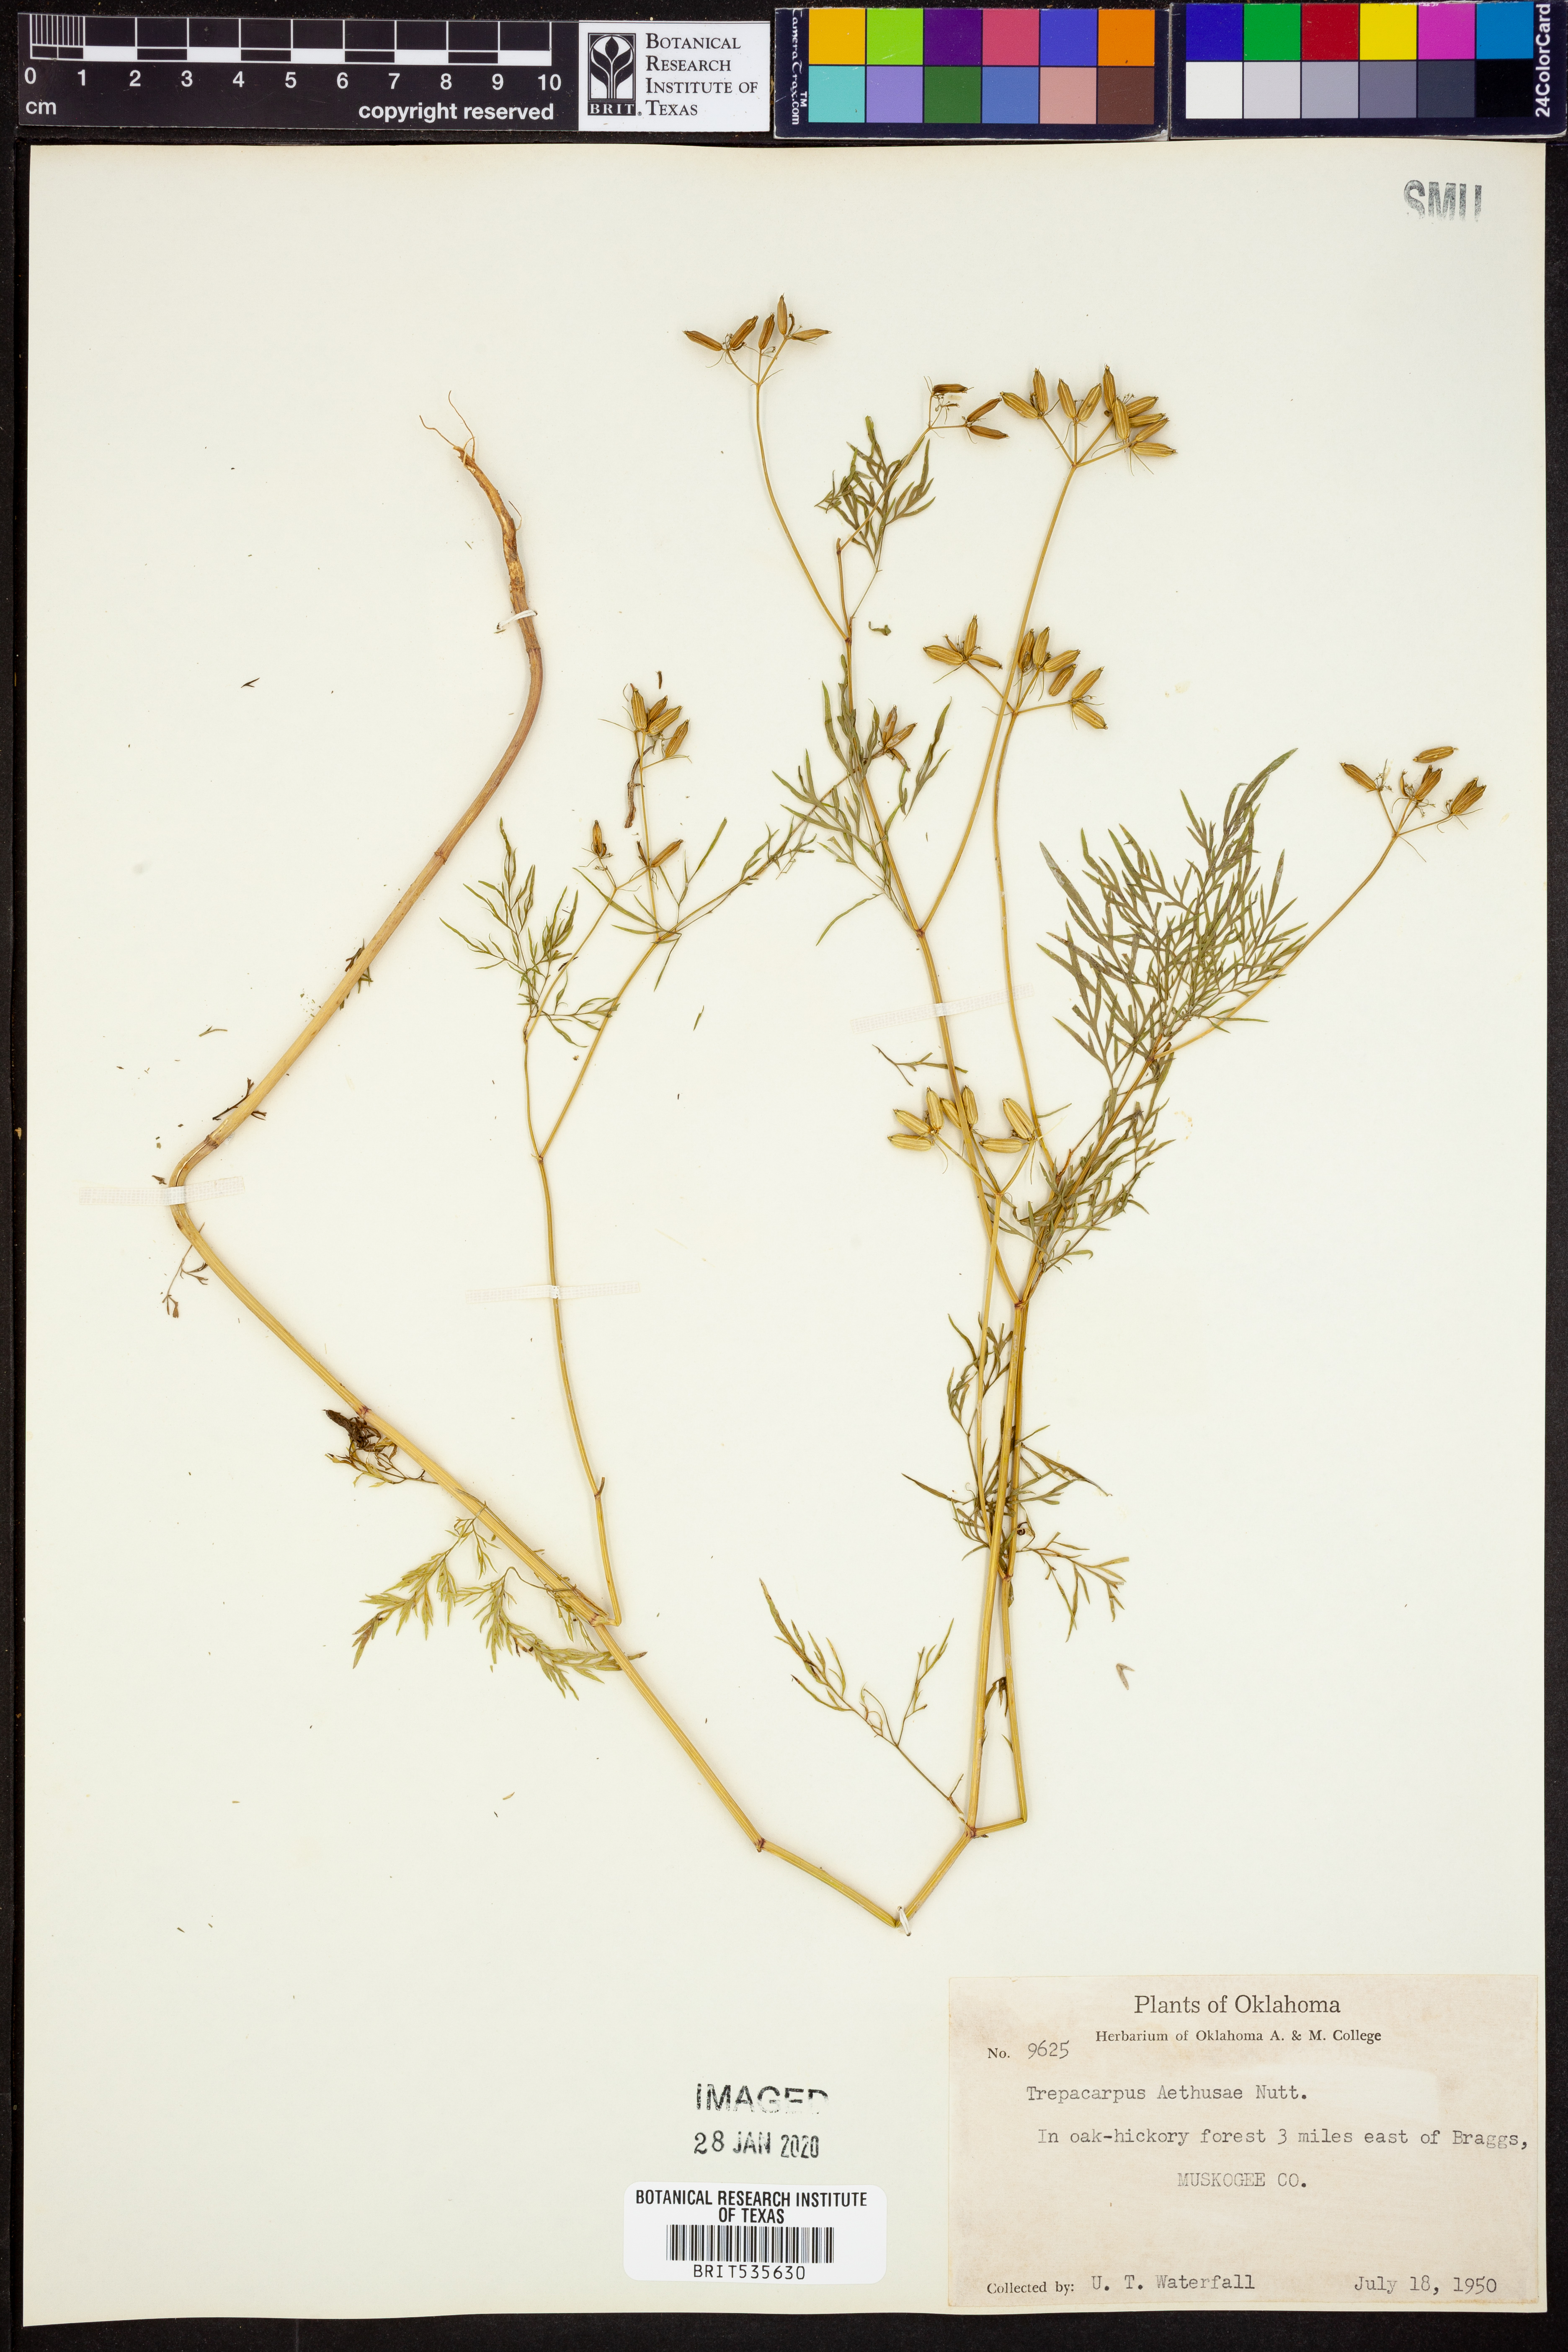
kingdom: Plantae
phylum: Tracheophyta
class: Magnoliopsida
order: Apiales
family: Apiaceae
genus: Trepocarpus
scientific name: Trepocarpus aethusae
